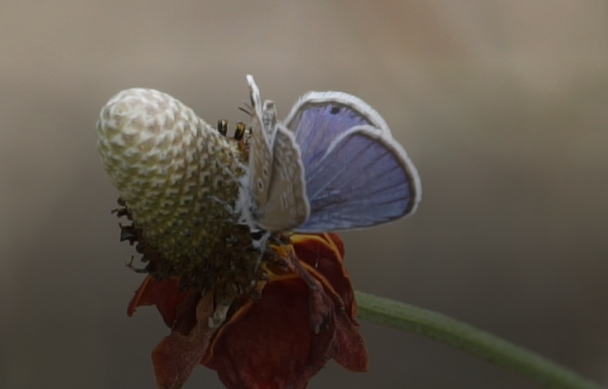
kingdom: Animalia
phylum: Arthropoda
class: Insecta
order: Lepidoptera
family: Lycaenidae
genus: Hemiargus
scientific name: Hemiargus ceraunus
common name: Ceraunus Blue
